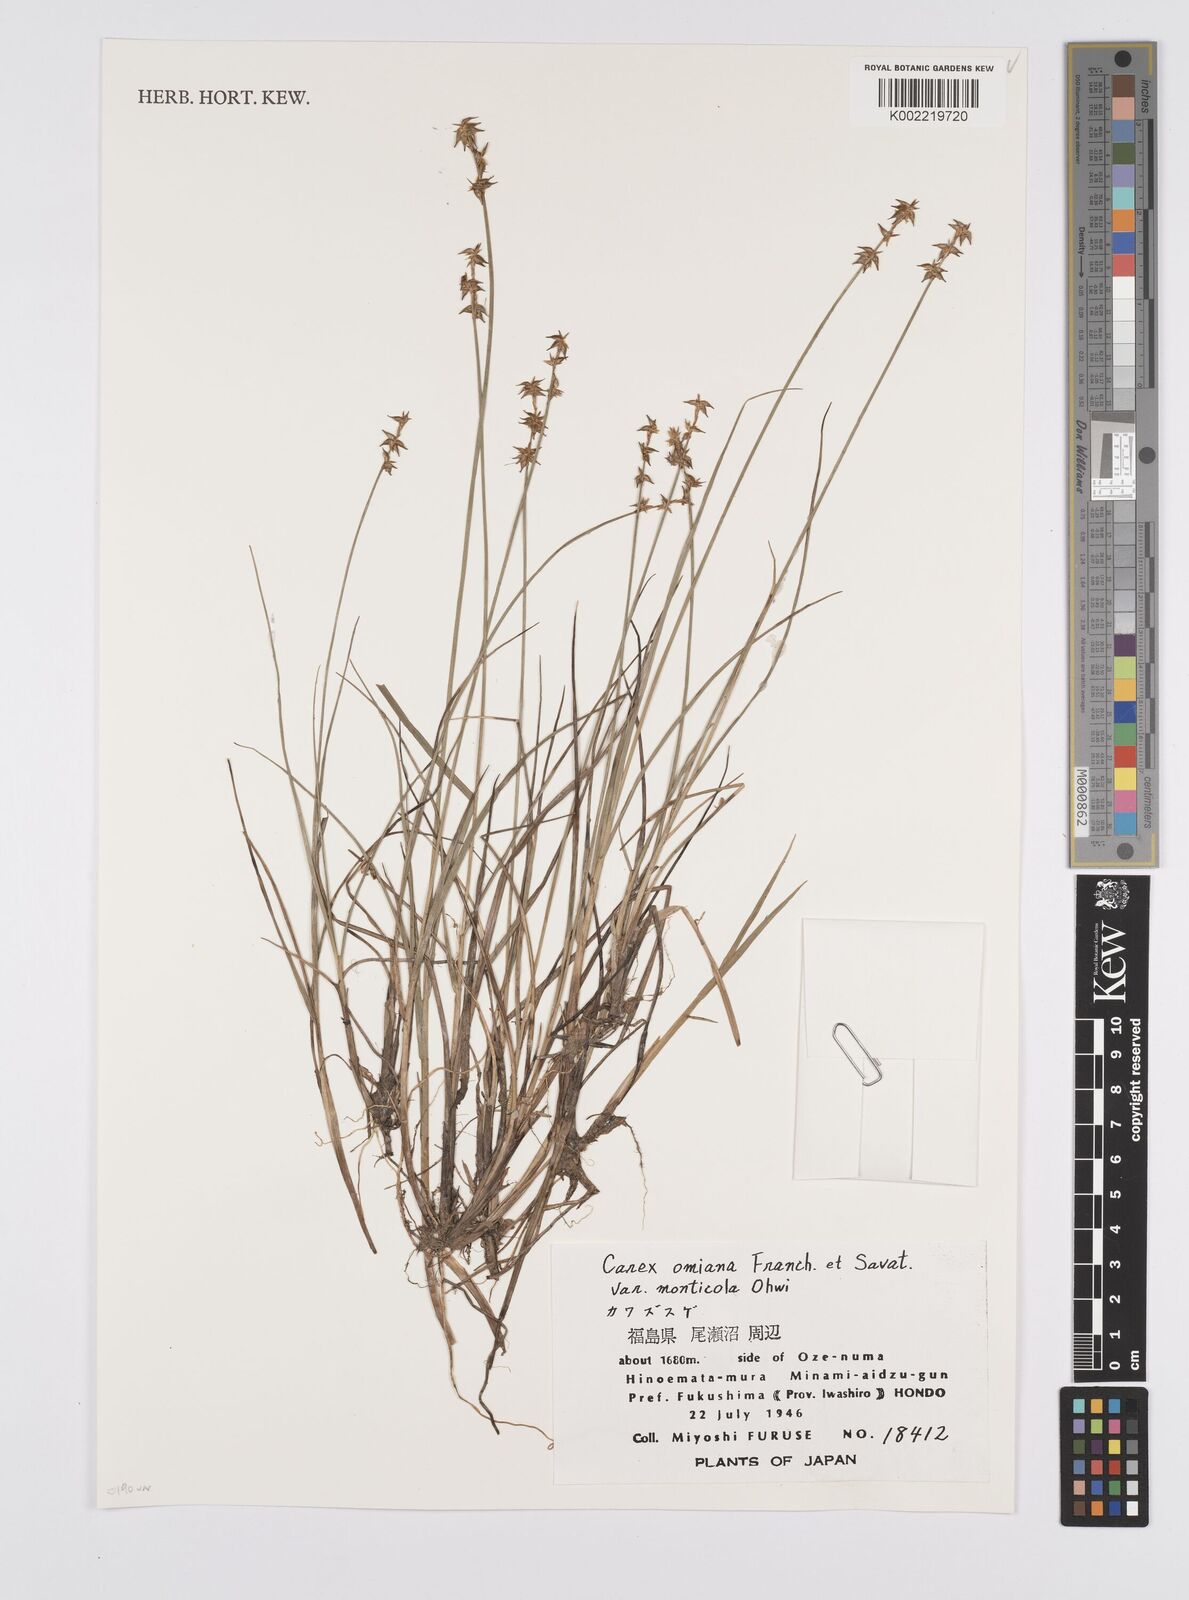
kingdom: Plantae
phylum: Tracheophyta
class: Liliopsida
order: Poales
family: Cyperaceae
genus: Carex
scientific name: Carex omiana
